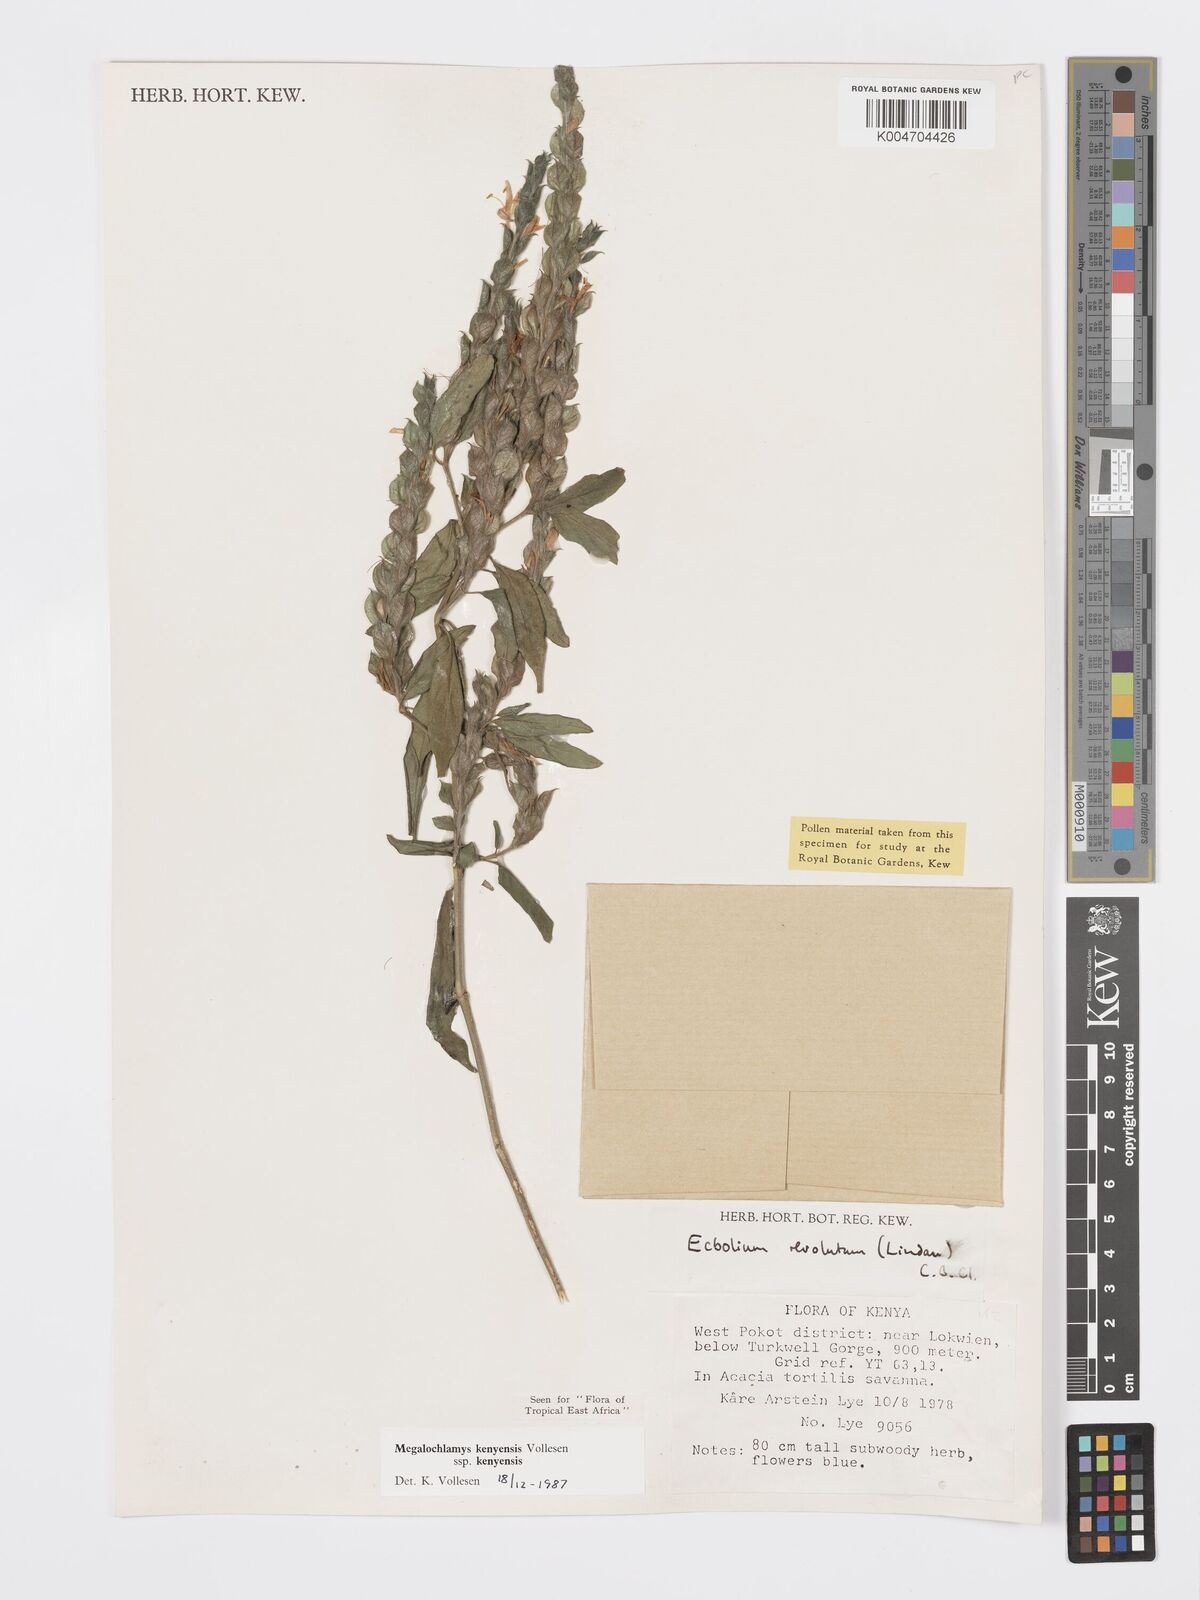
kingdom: Plantae
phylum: Tracheophyta
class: Magnoliopsida
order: Lamiales
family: Acanthaceae
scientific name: Acanthaceae
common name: Acanthaceae
